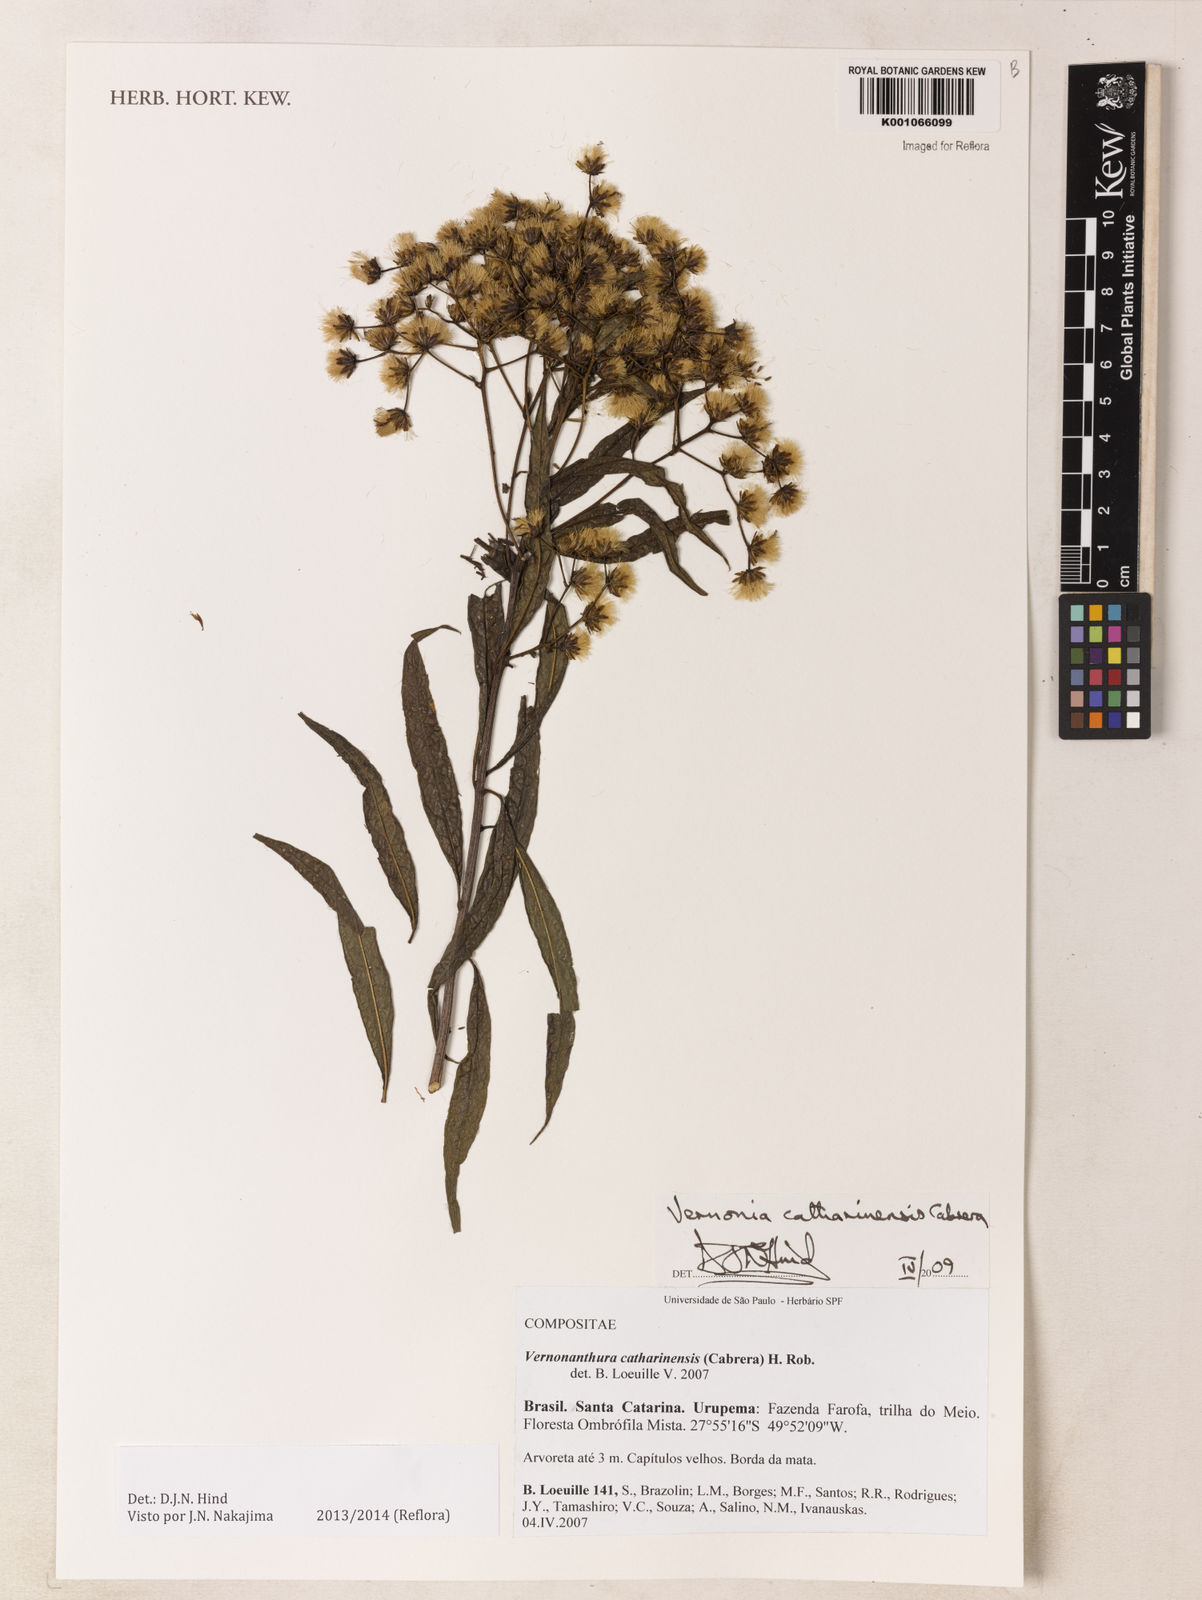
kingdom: Plantae
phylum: Tracheophyta
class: Magnoliopsida
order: Asterales
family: Asteraceae
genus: Vernonanthura
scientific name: Vernonanthura catharinensis
